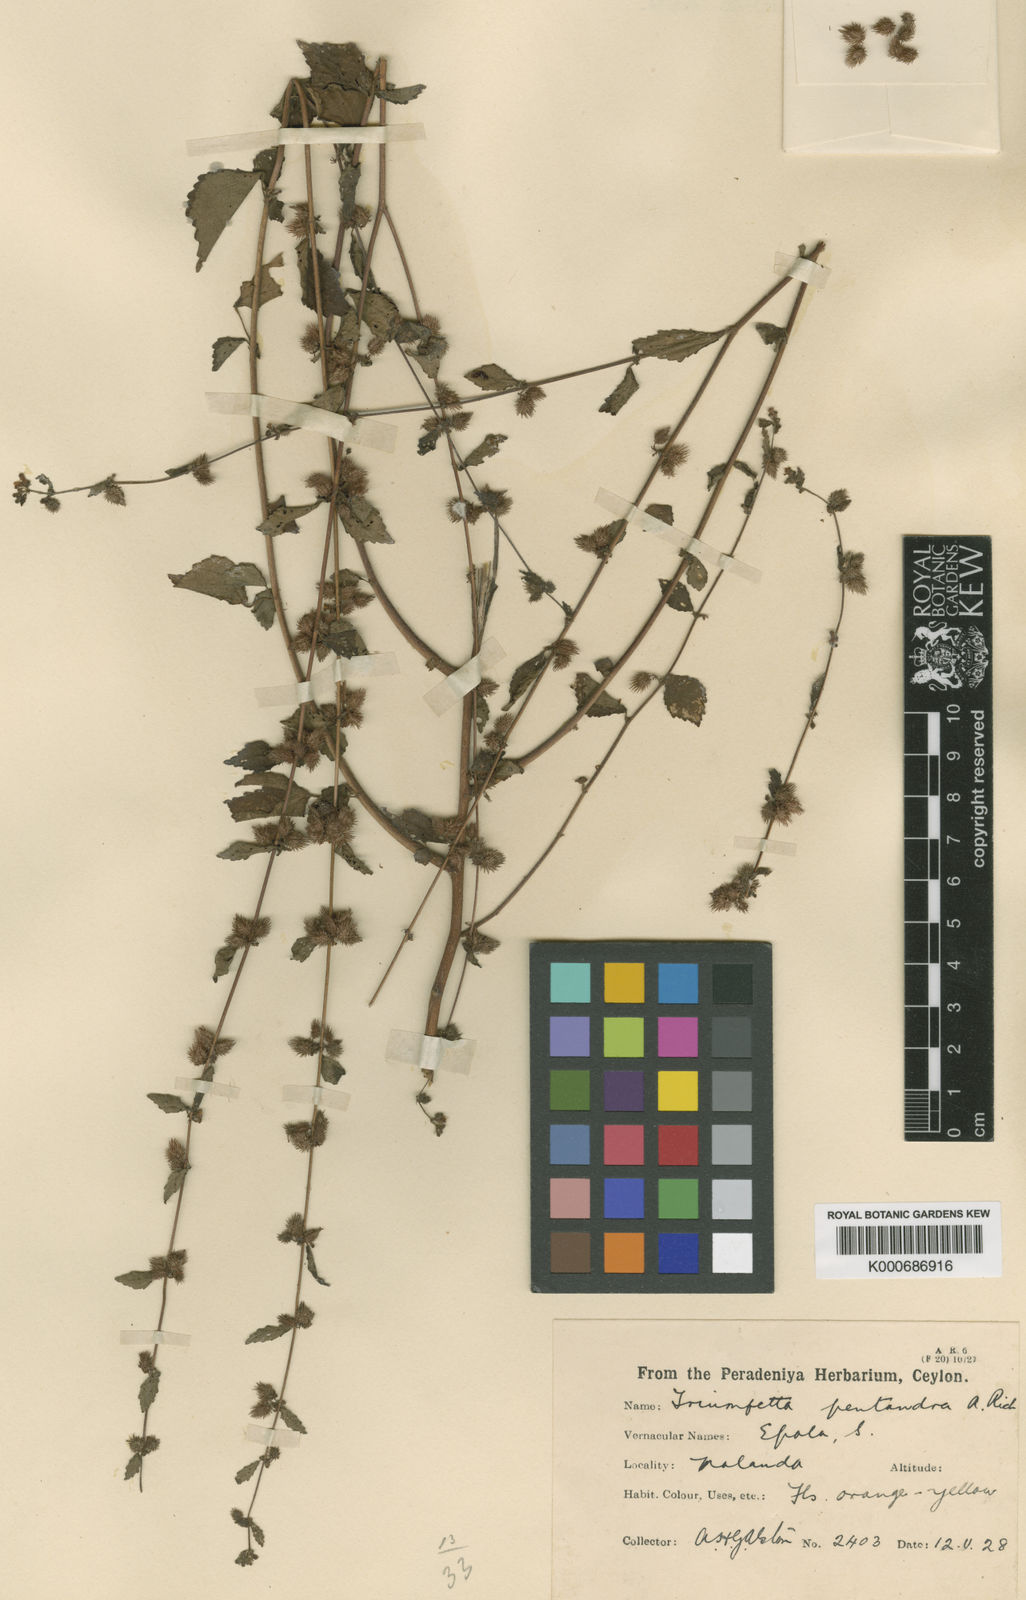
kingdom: Plantae
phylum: Tracheophyta
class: Magnoliopsida
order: Malvales
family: Malvaceae
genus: Triumfetta
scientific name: Triumfetta pentandra
